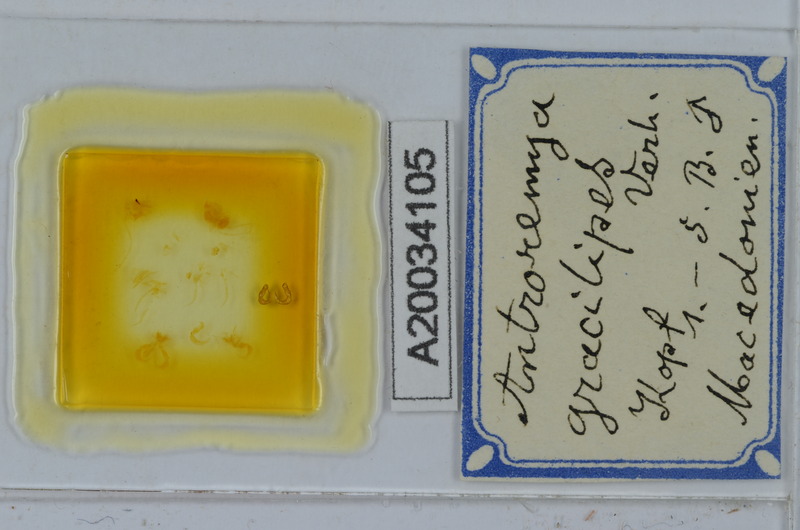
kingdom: Animalia
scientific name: Animalia
